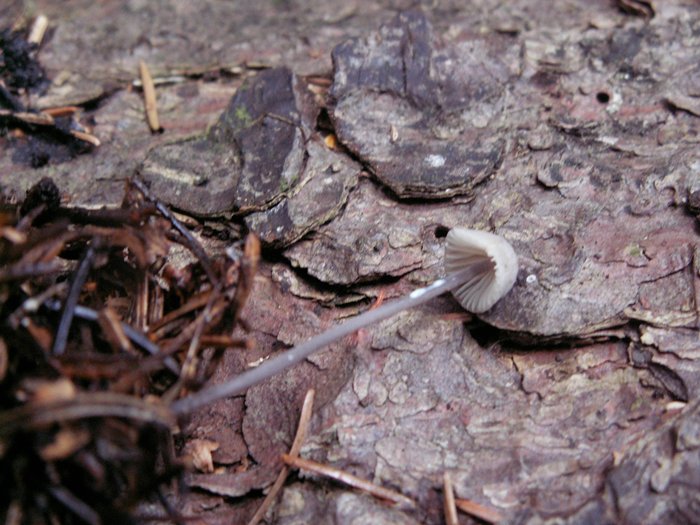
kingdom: Fungi
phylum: Basidiomycota
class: Agaricomycetes
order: Agaricales
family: Mycenaceae
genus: Mycena
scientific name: Mycena galopus
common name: hvidmælket huesvamp
